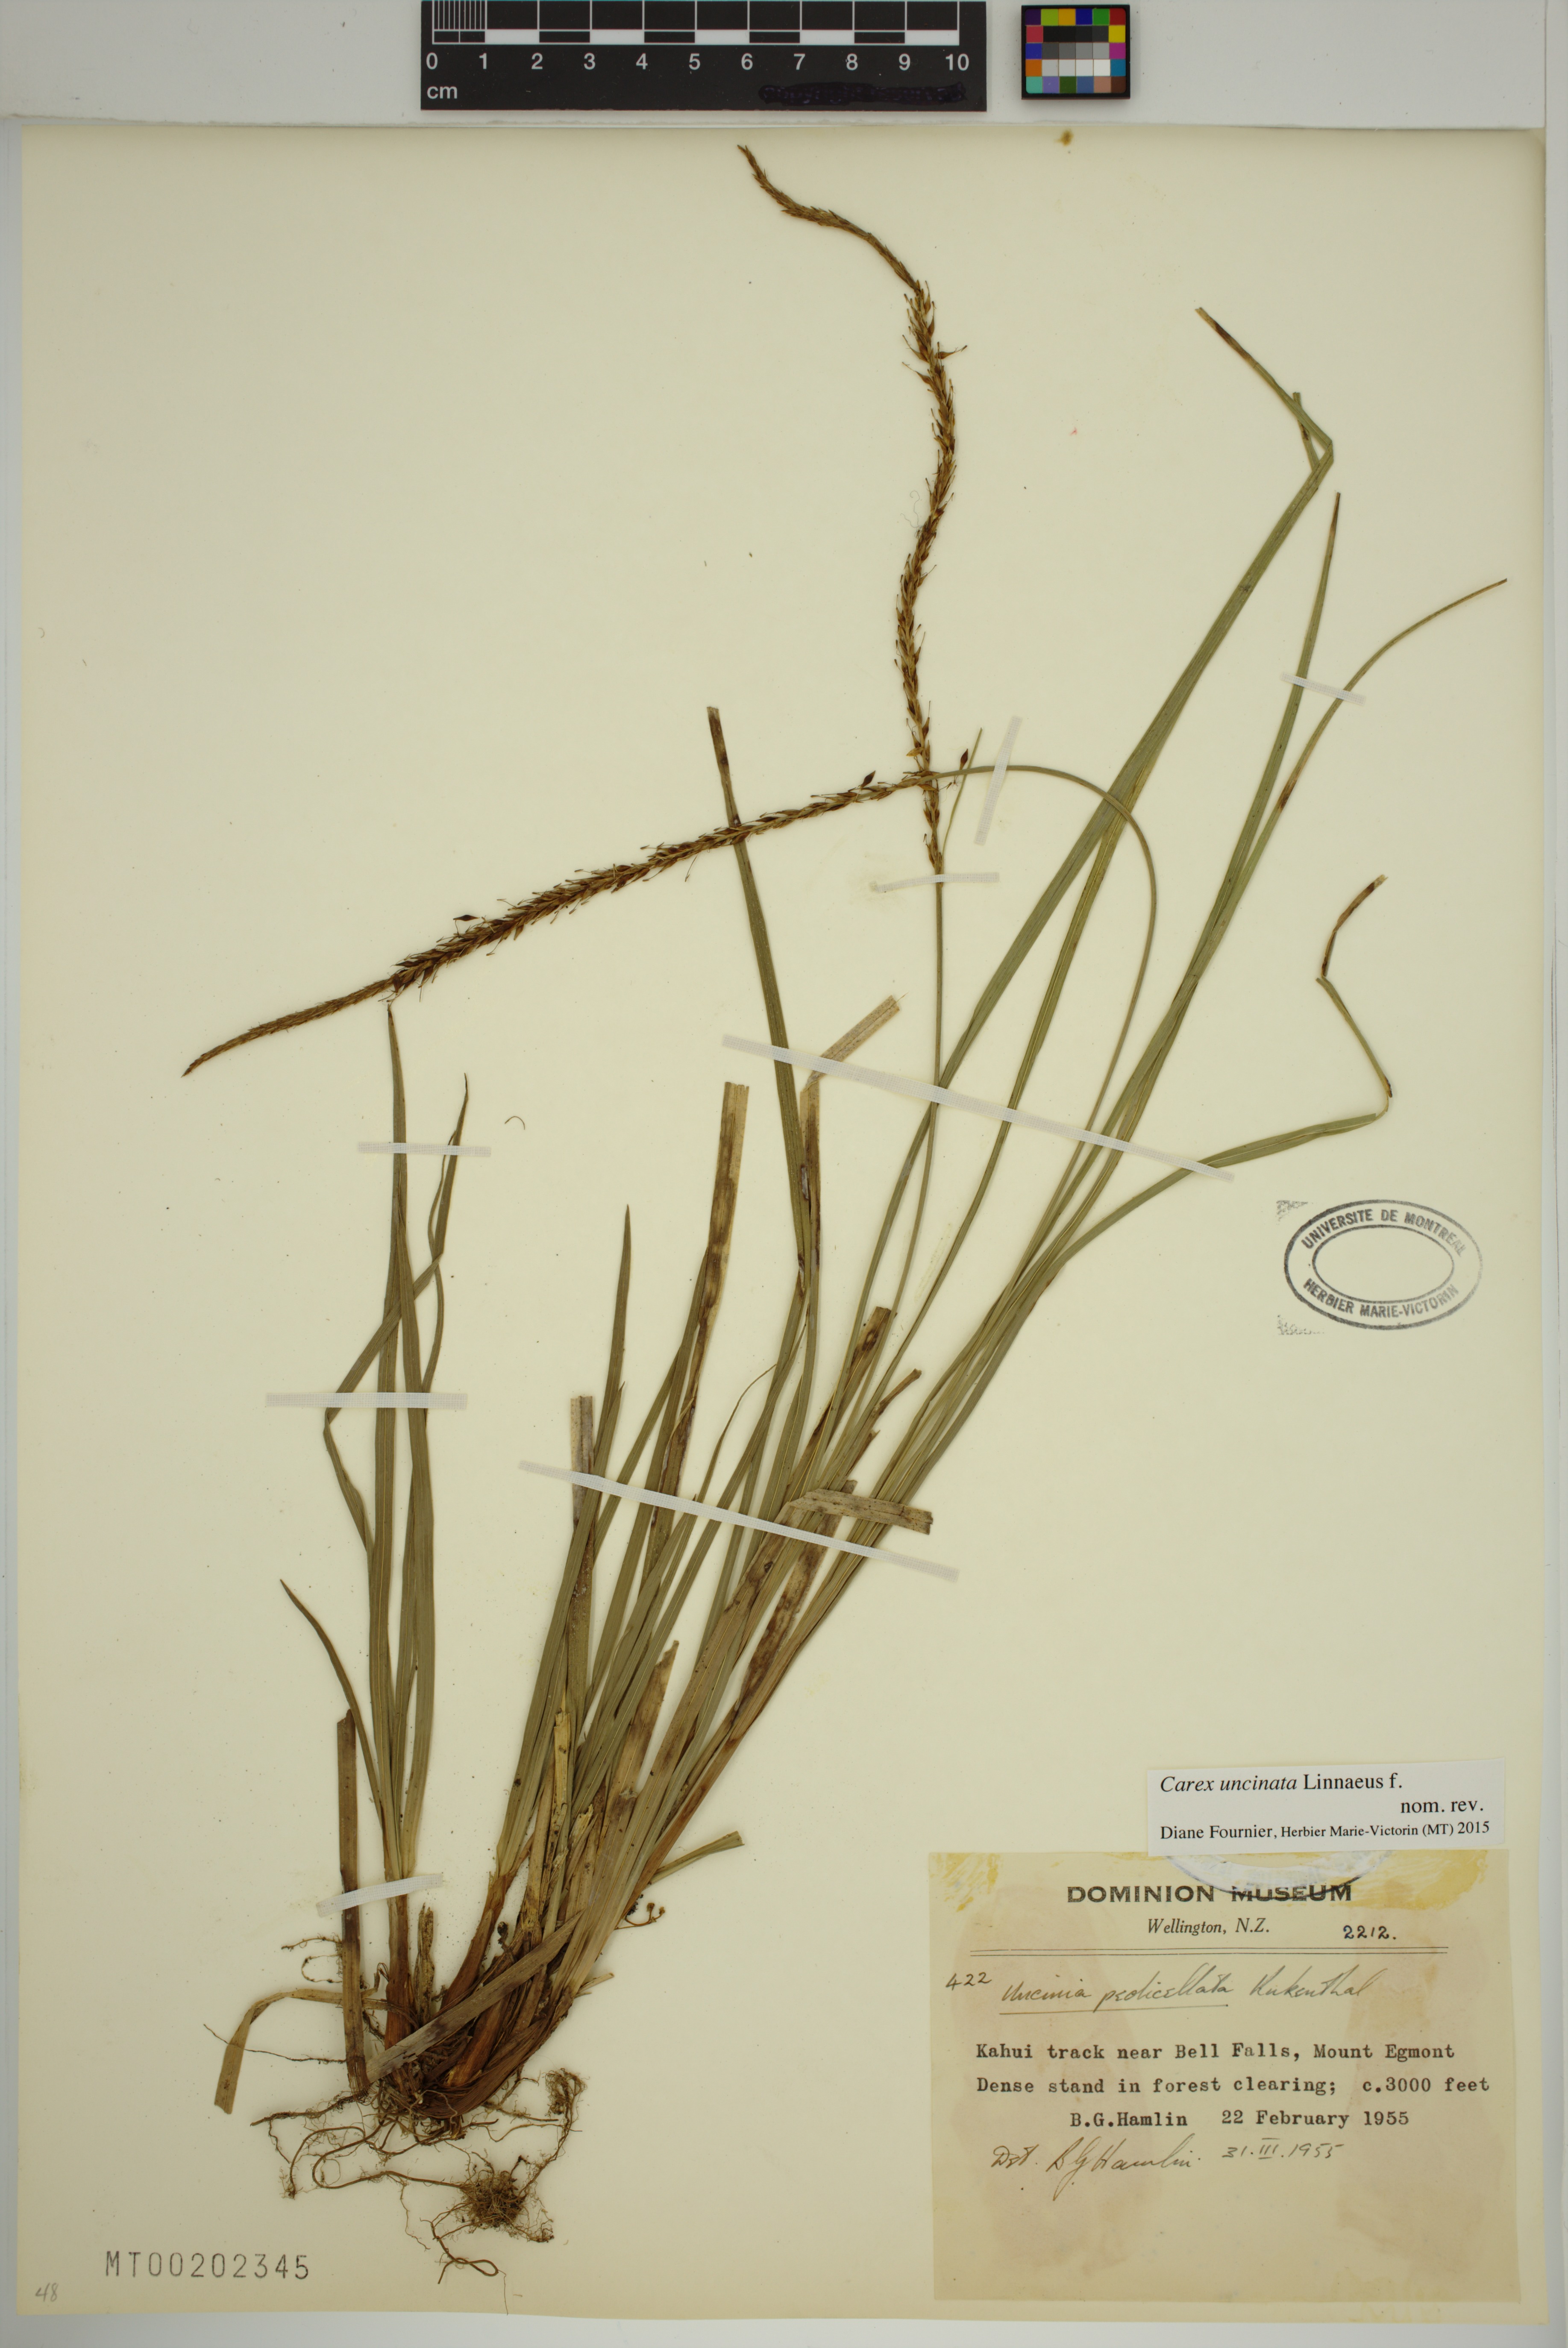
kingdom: Plantae
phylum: Tracheophyta
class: Liliopsida
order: Poales
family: Cyperaceae
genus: Carex
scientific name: Carex uncinata
